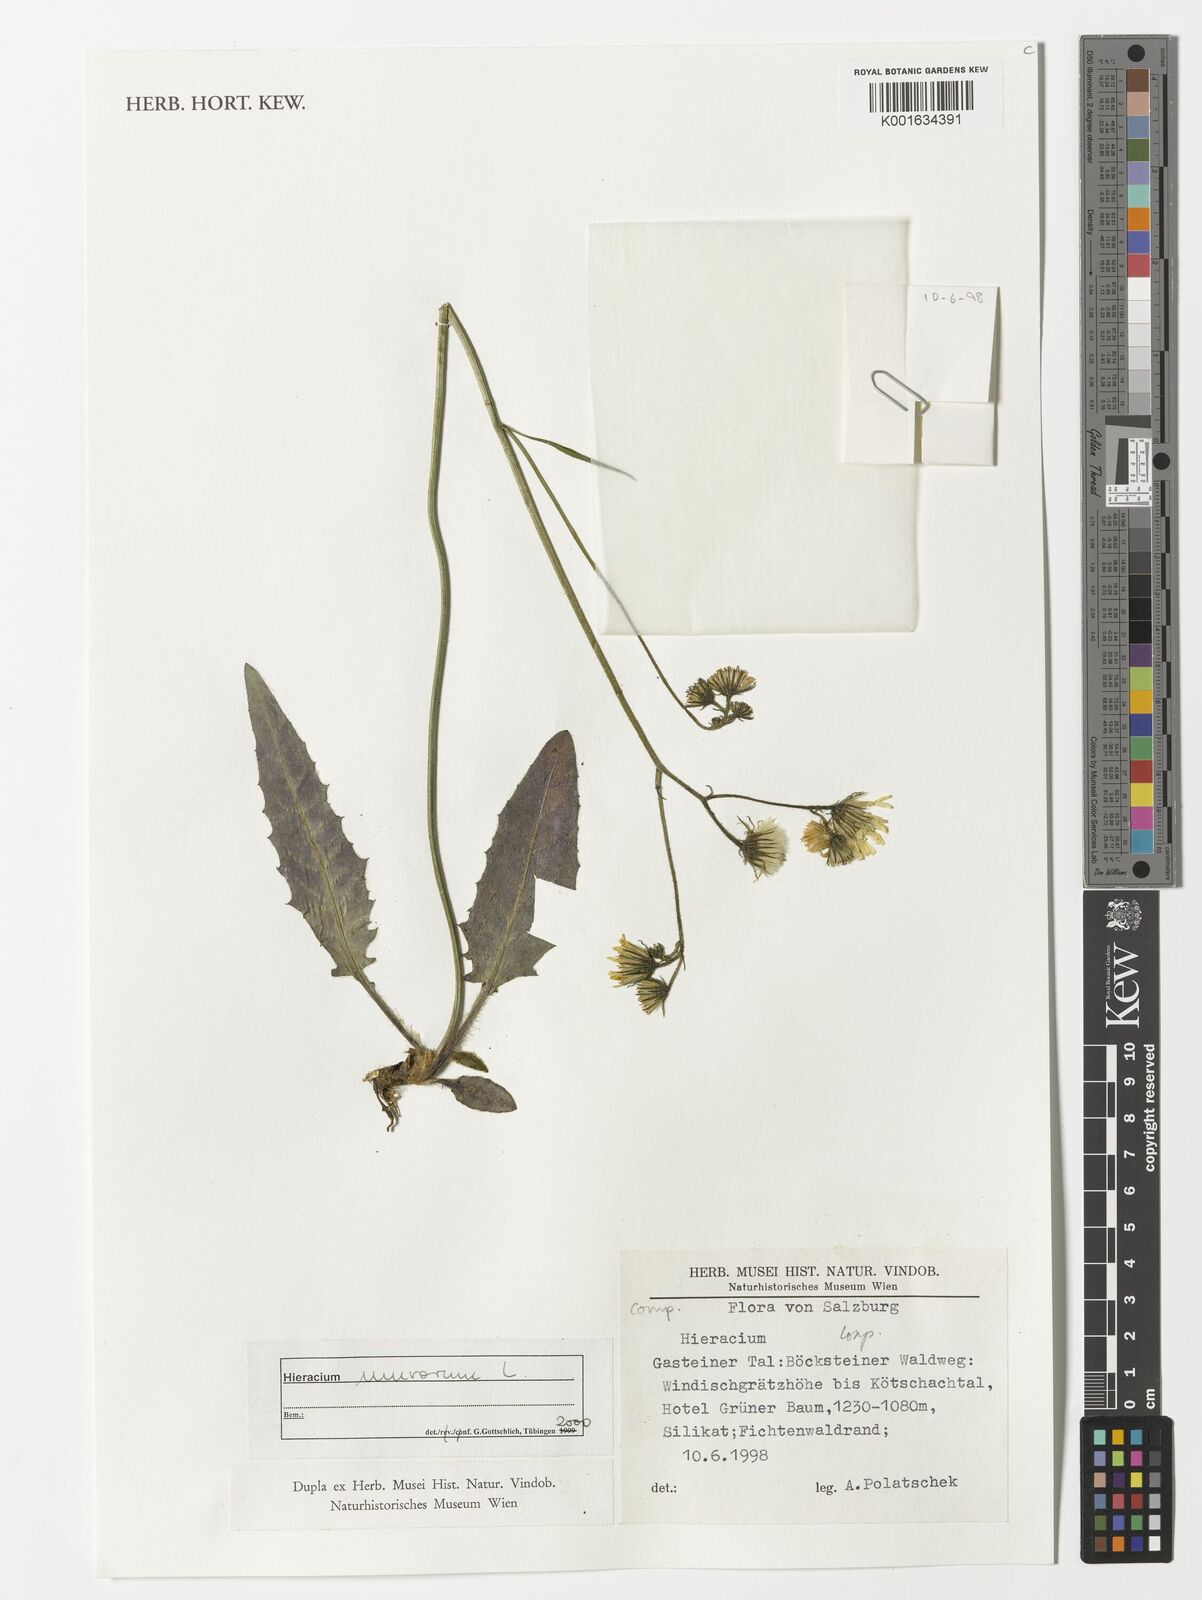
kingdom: Plantae
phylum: Tracheophyta
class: Magnoliopsida
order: Asterales
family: Asteraceae
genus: Hieracium
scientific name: Hieracium murorum
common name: Wall hawkweed
